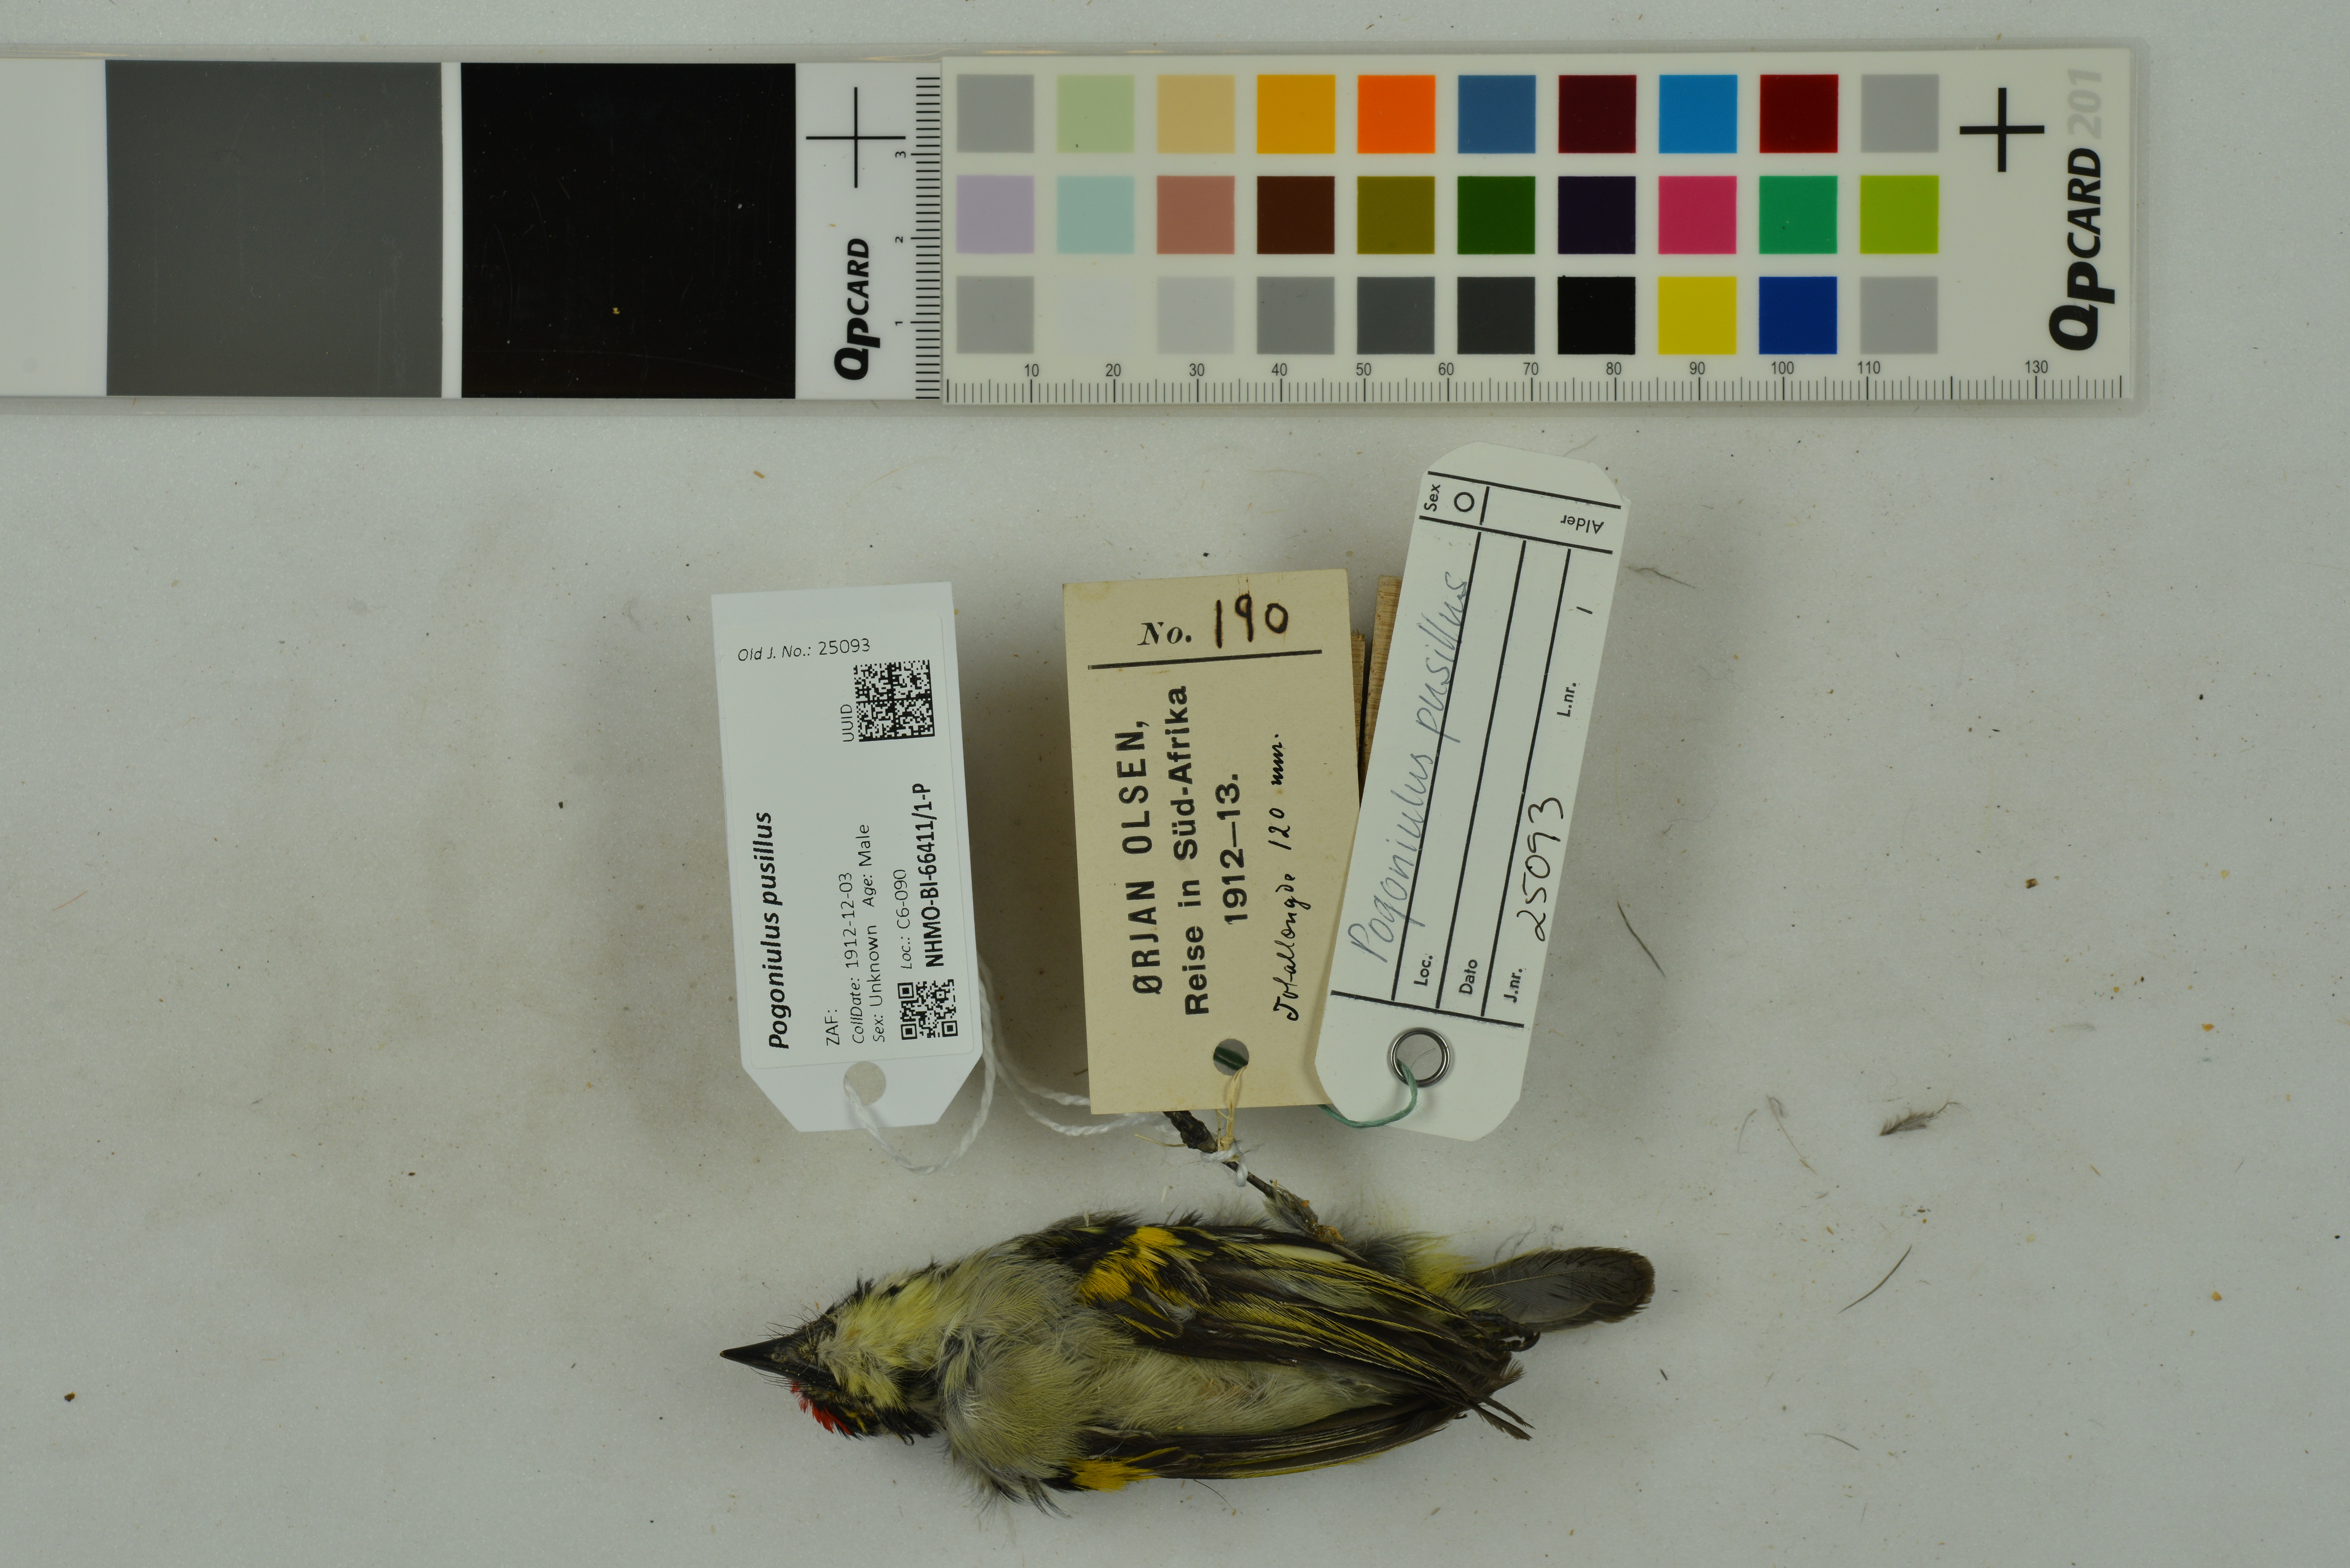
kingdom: Animalia
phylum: Chordata
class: Aves
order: Piciformes
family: Lybiidae
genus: Pogoniulus
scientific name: Pogoniulus pusillus
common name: Red-fronted tinkerbird
